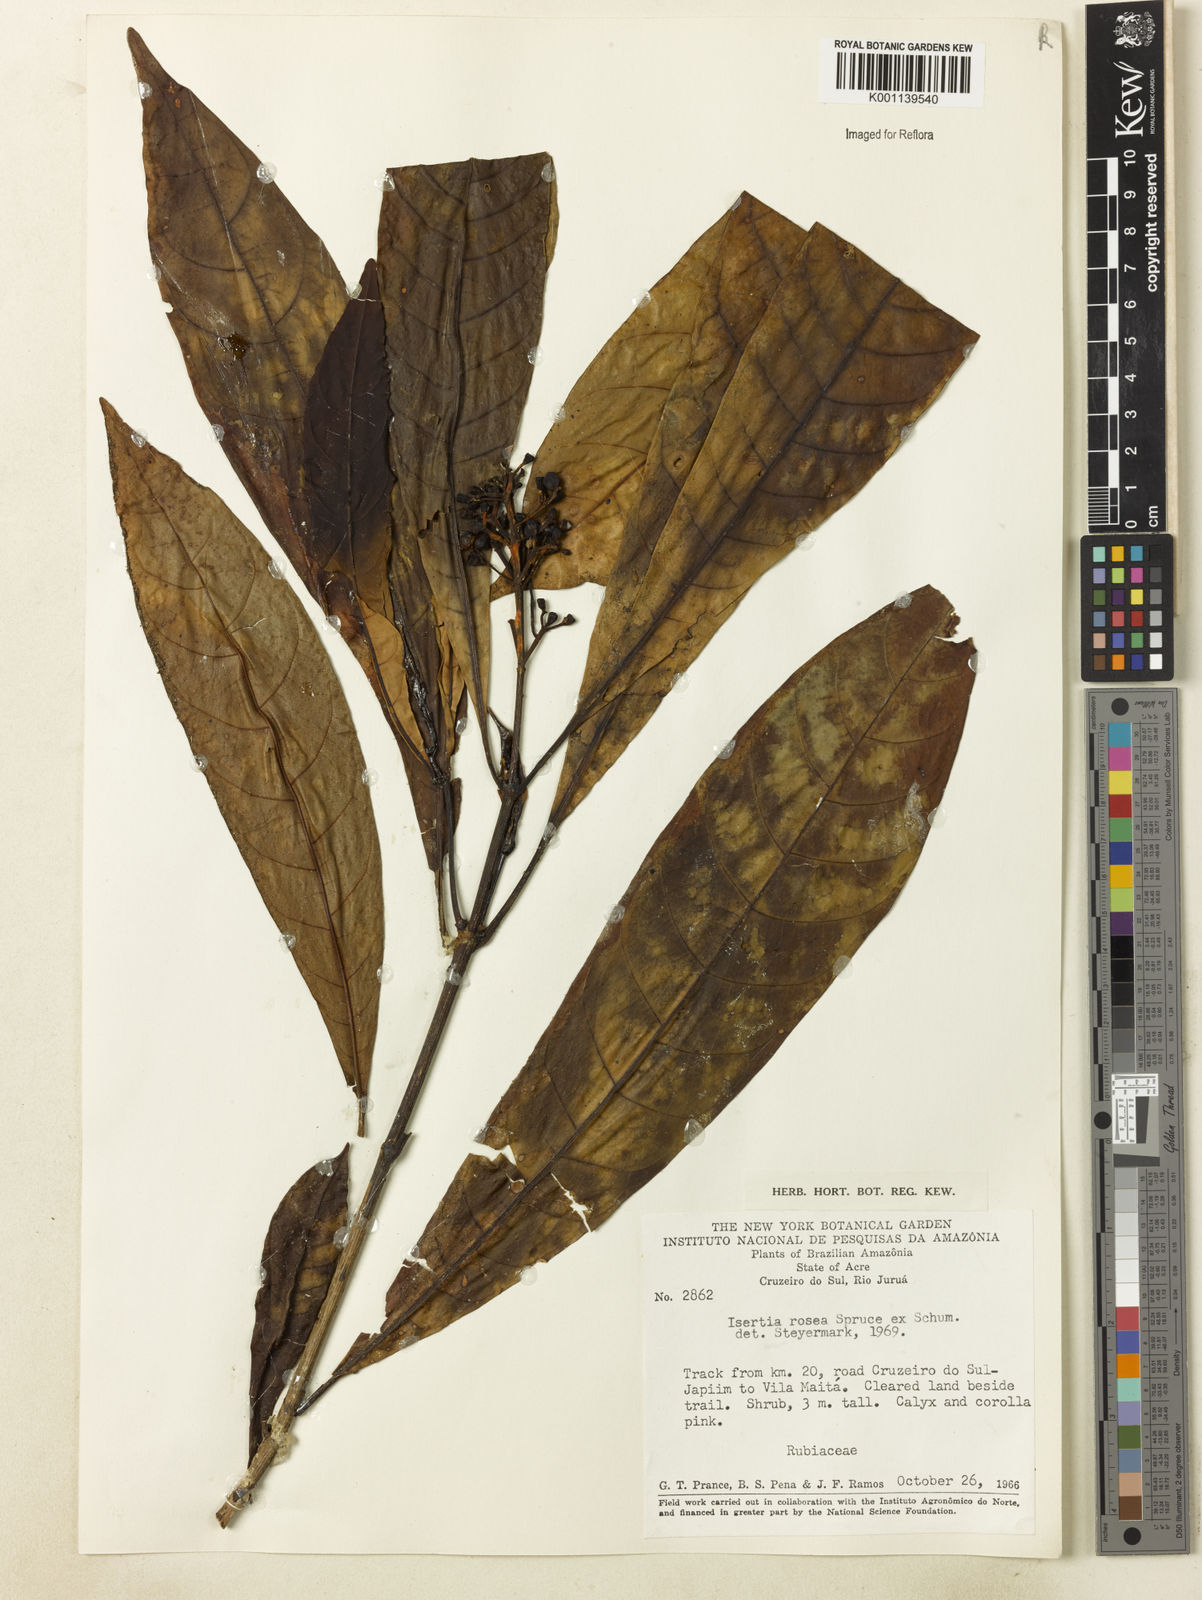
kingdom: Plantae
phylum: Tracheophyta
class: Magnoliopsida
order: Gentianales
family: Rubiaceae
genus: Isertia
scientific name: Isertia rosea
